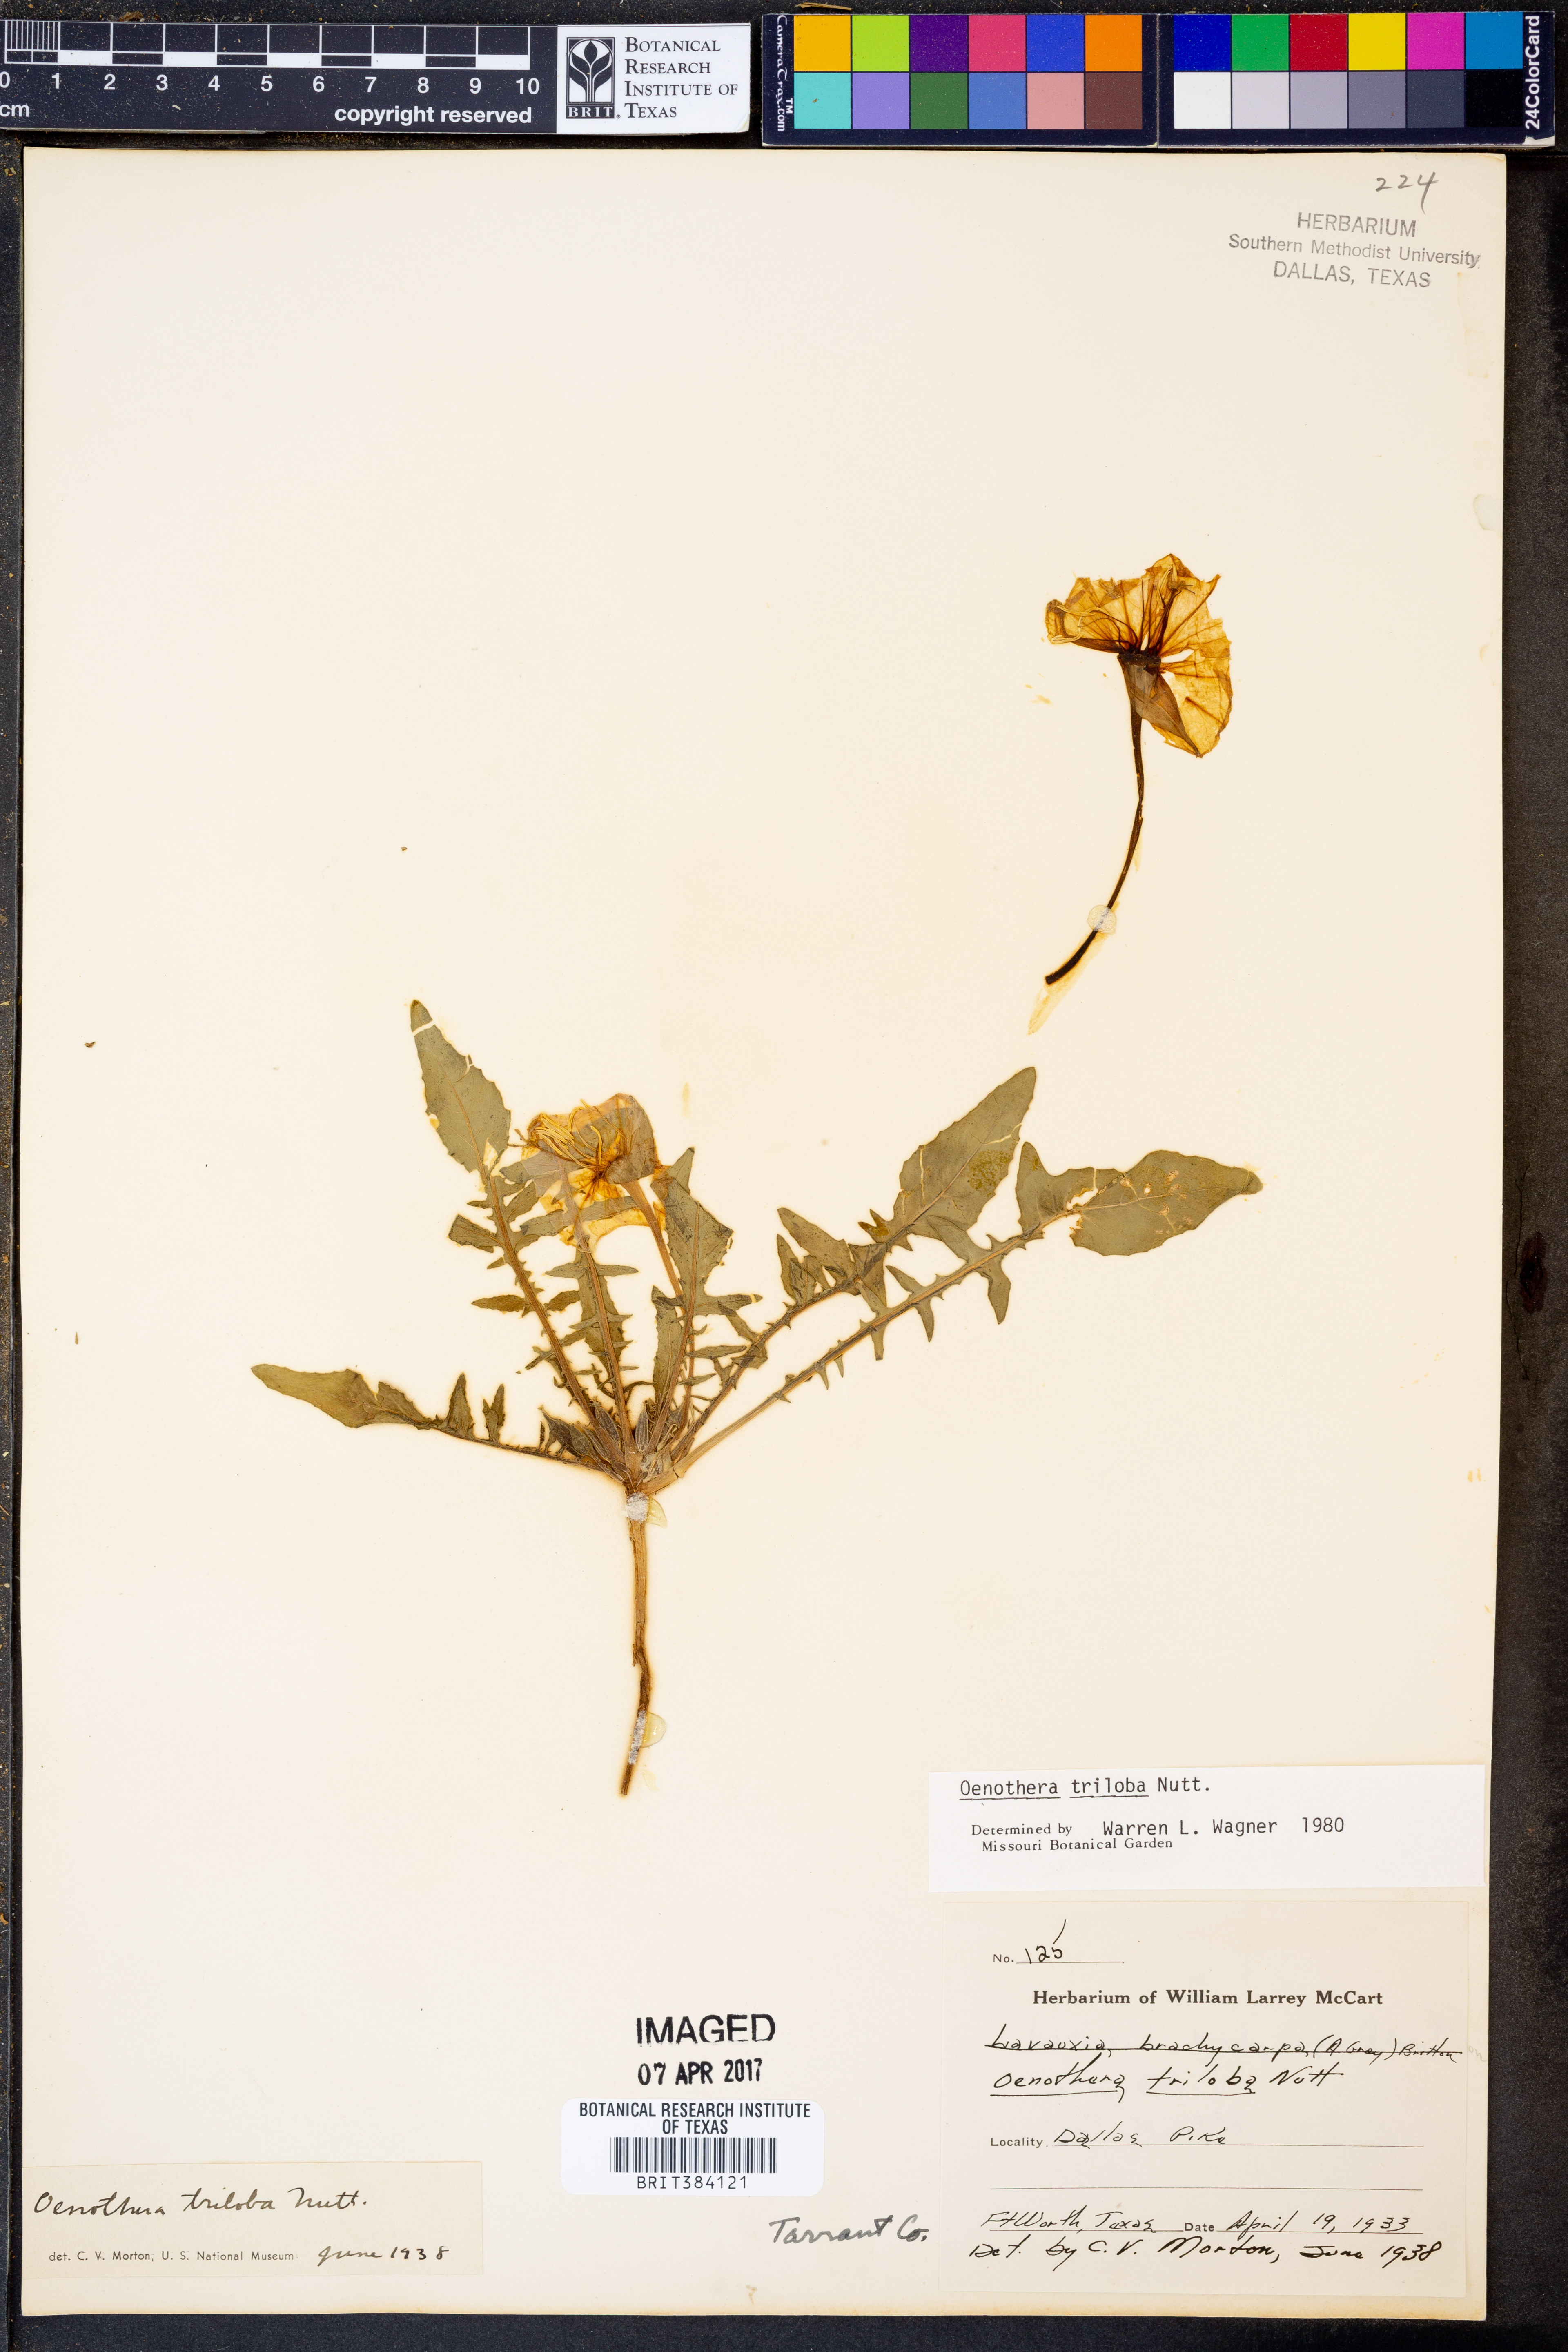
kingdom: Plantae
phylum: Tracheophyta
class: Magnoliopsida
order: Myrtales
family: Onagraceae
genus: Oenothera
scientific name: Oenothera triloba
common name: Sessile evening-primrose
